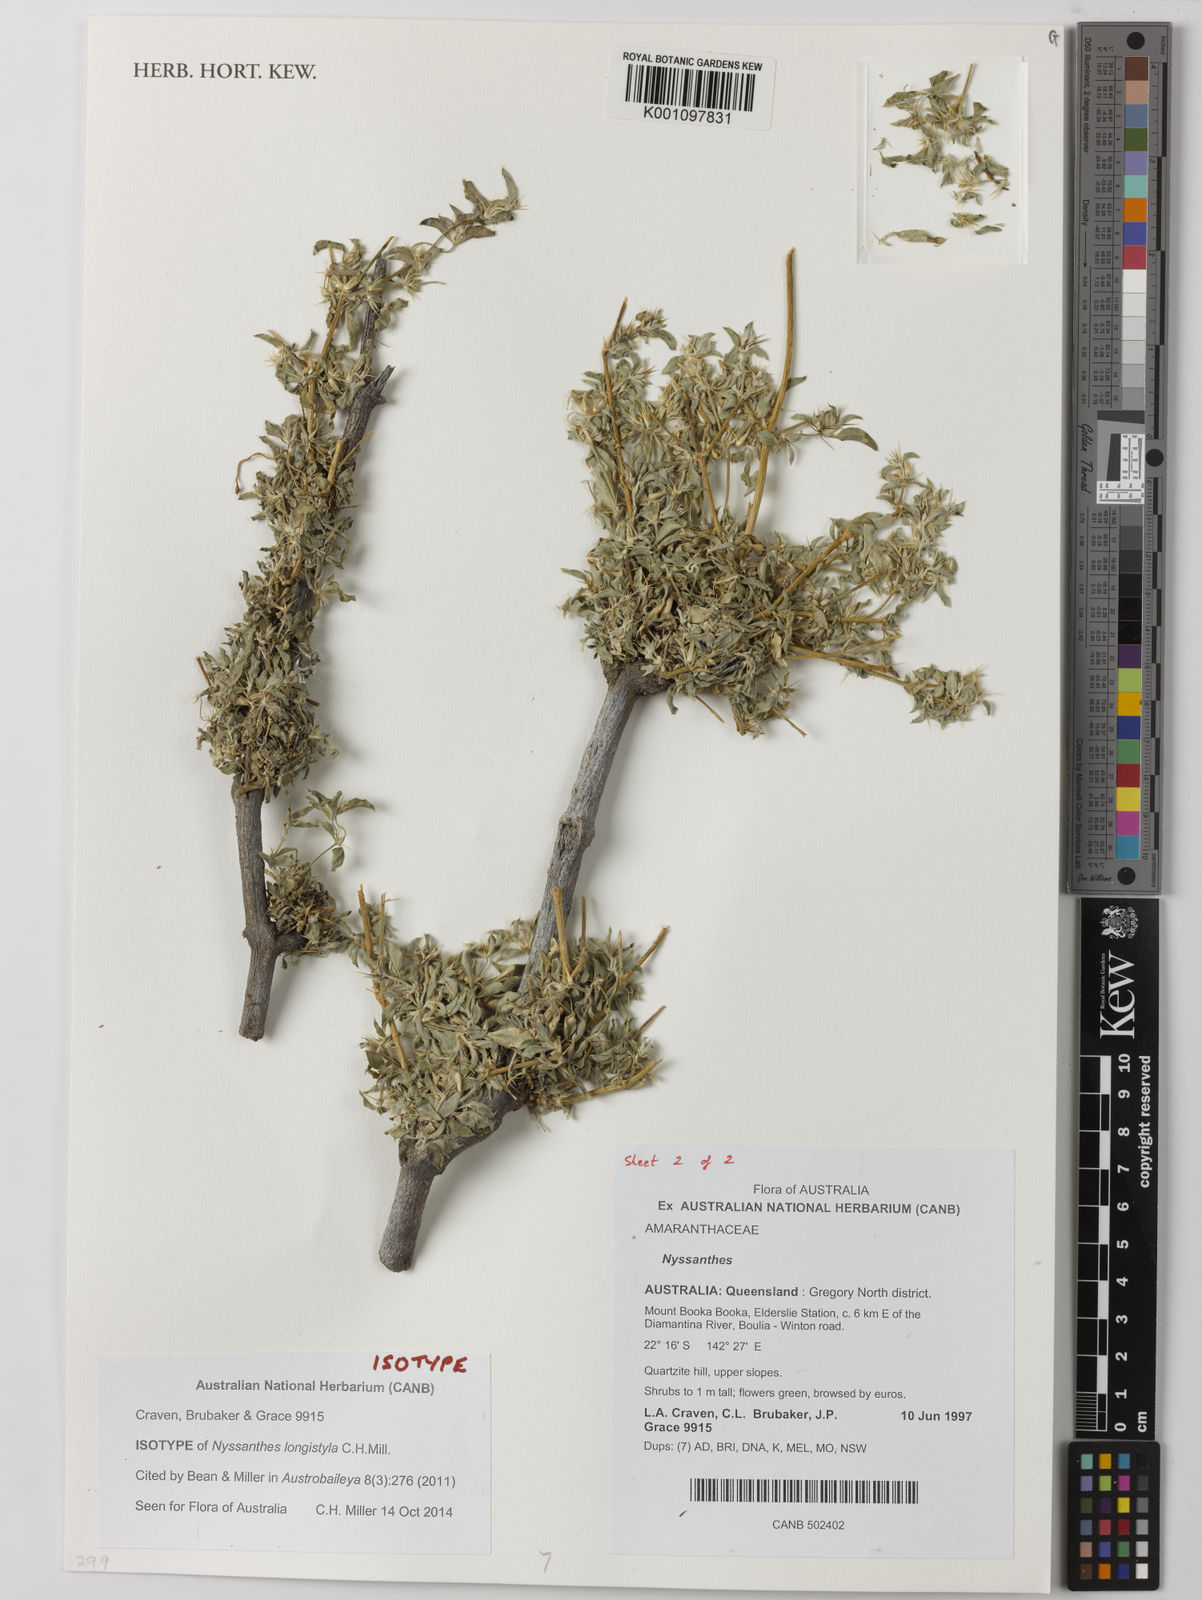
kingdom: Plantae
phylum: Tracheophyta
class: Magnoliopsida
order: Caryophyllales
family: Amaranthaceae
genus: Nyssanthes
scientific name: Nyssanthes longistyla
